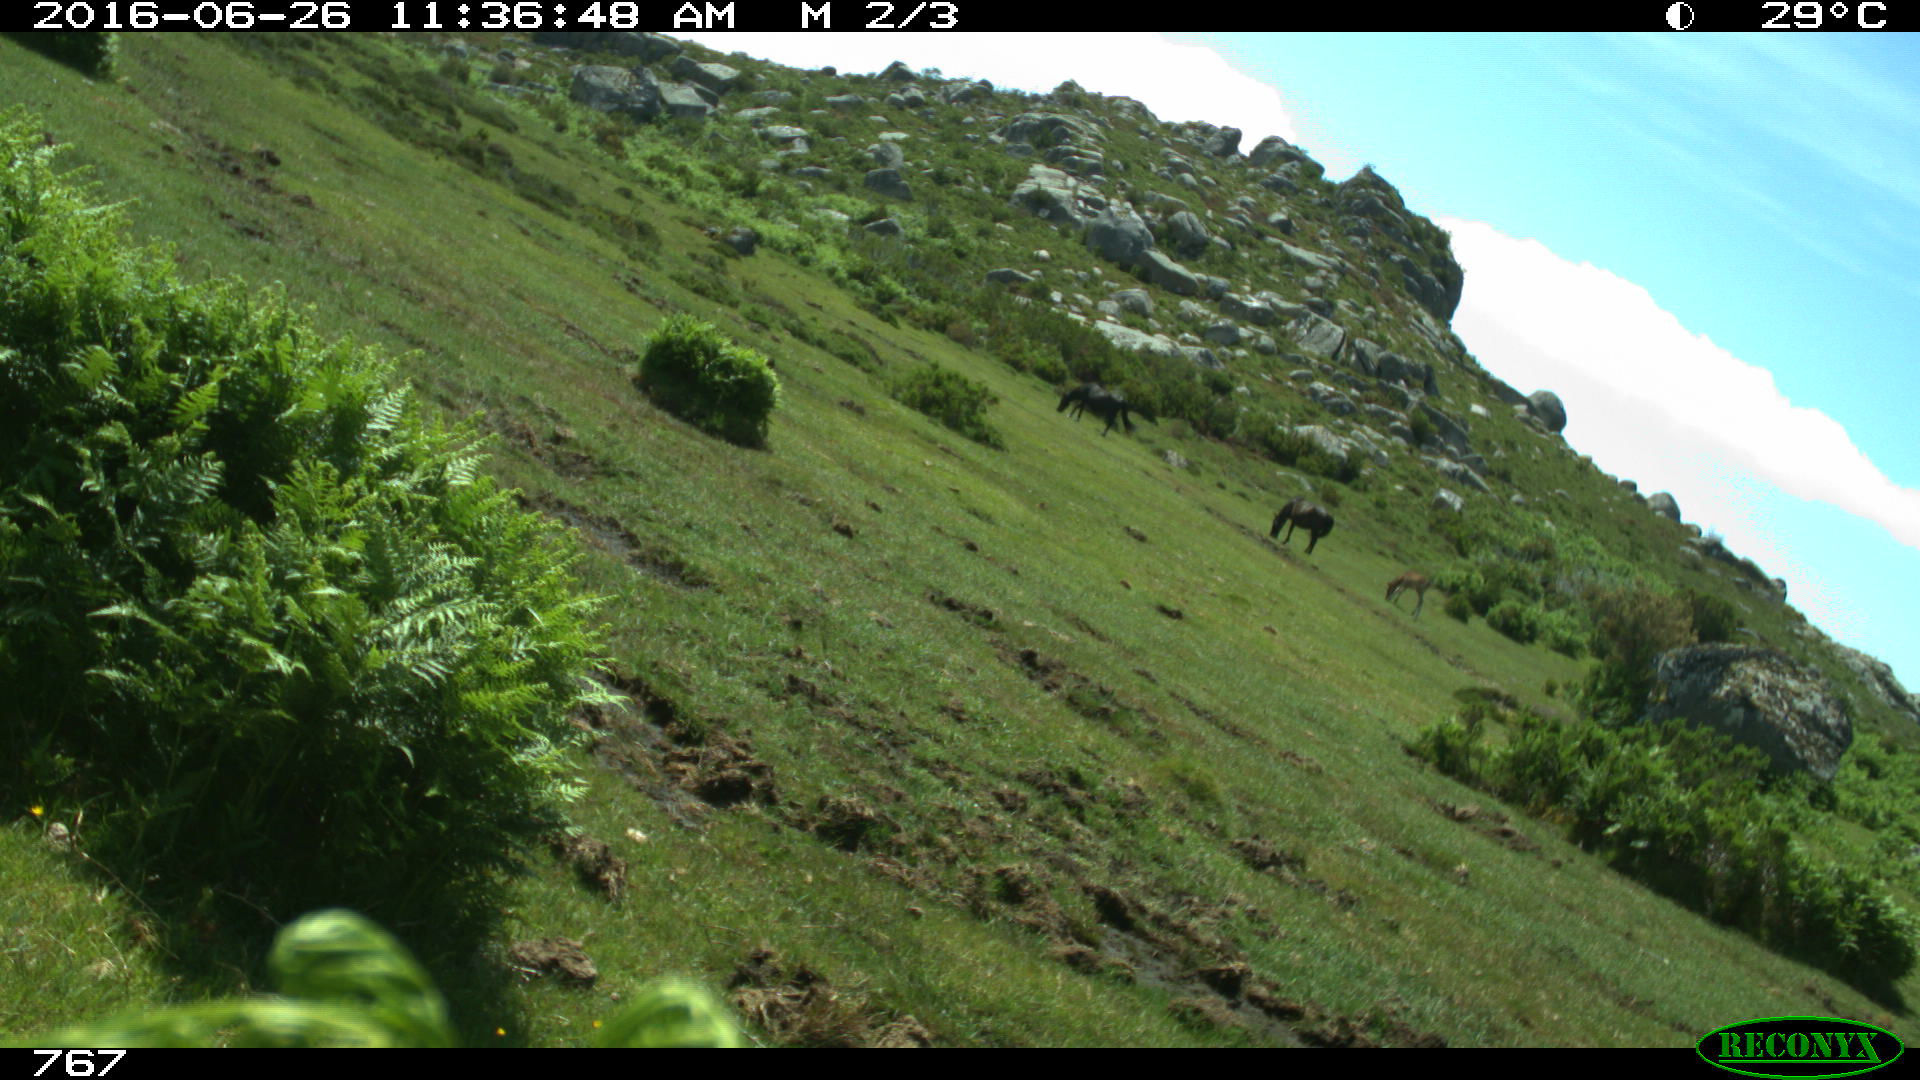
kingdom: Animalia
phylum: Chordata
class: Mammalia
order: Perissodactyla
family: Equidae
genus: Equus
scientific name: Equus caballus
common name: Horse
